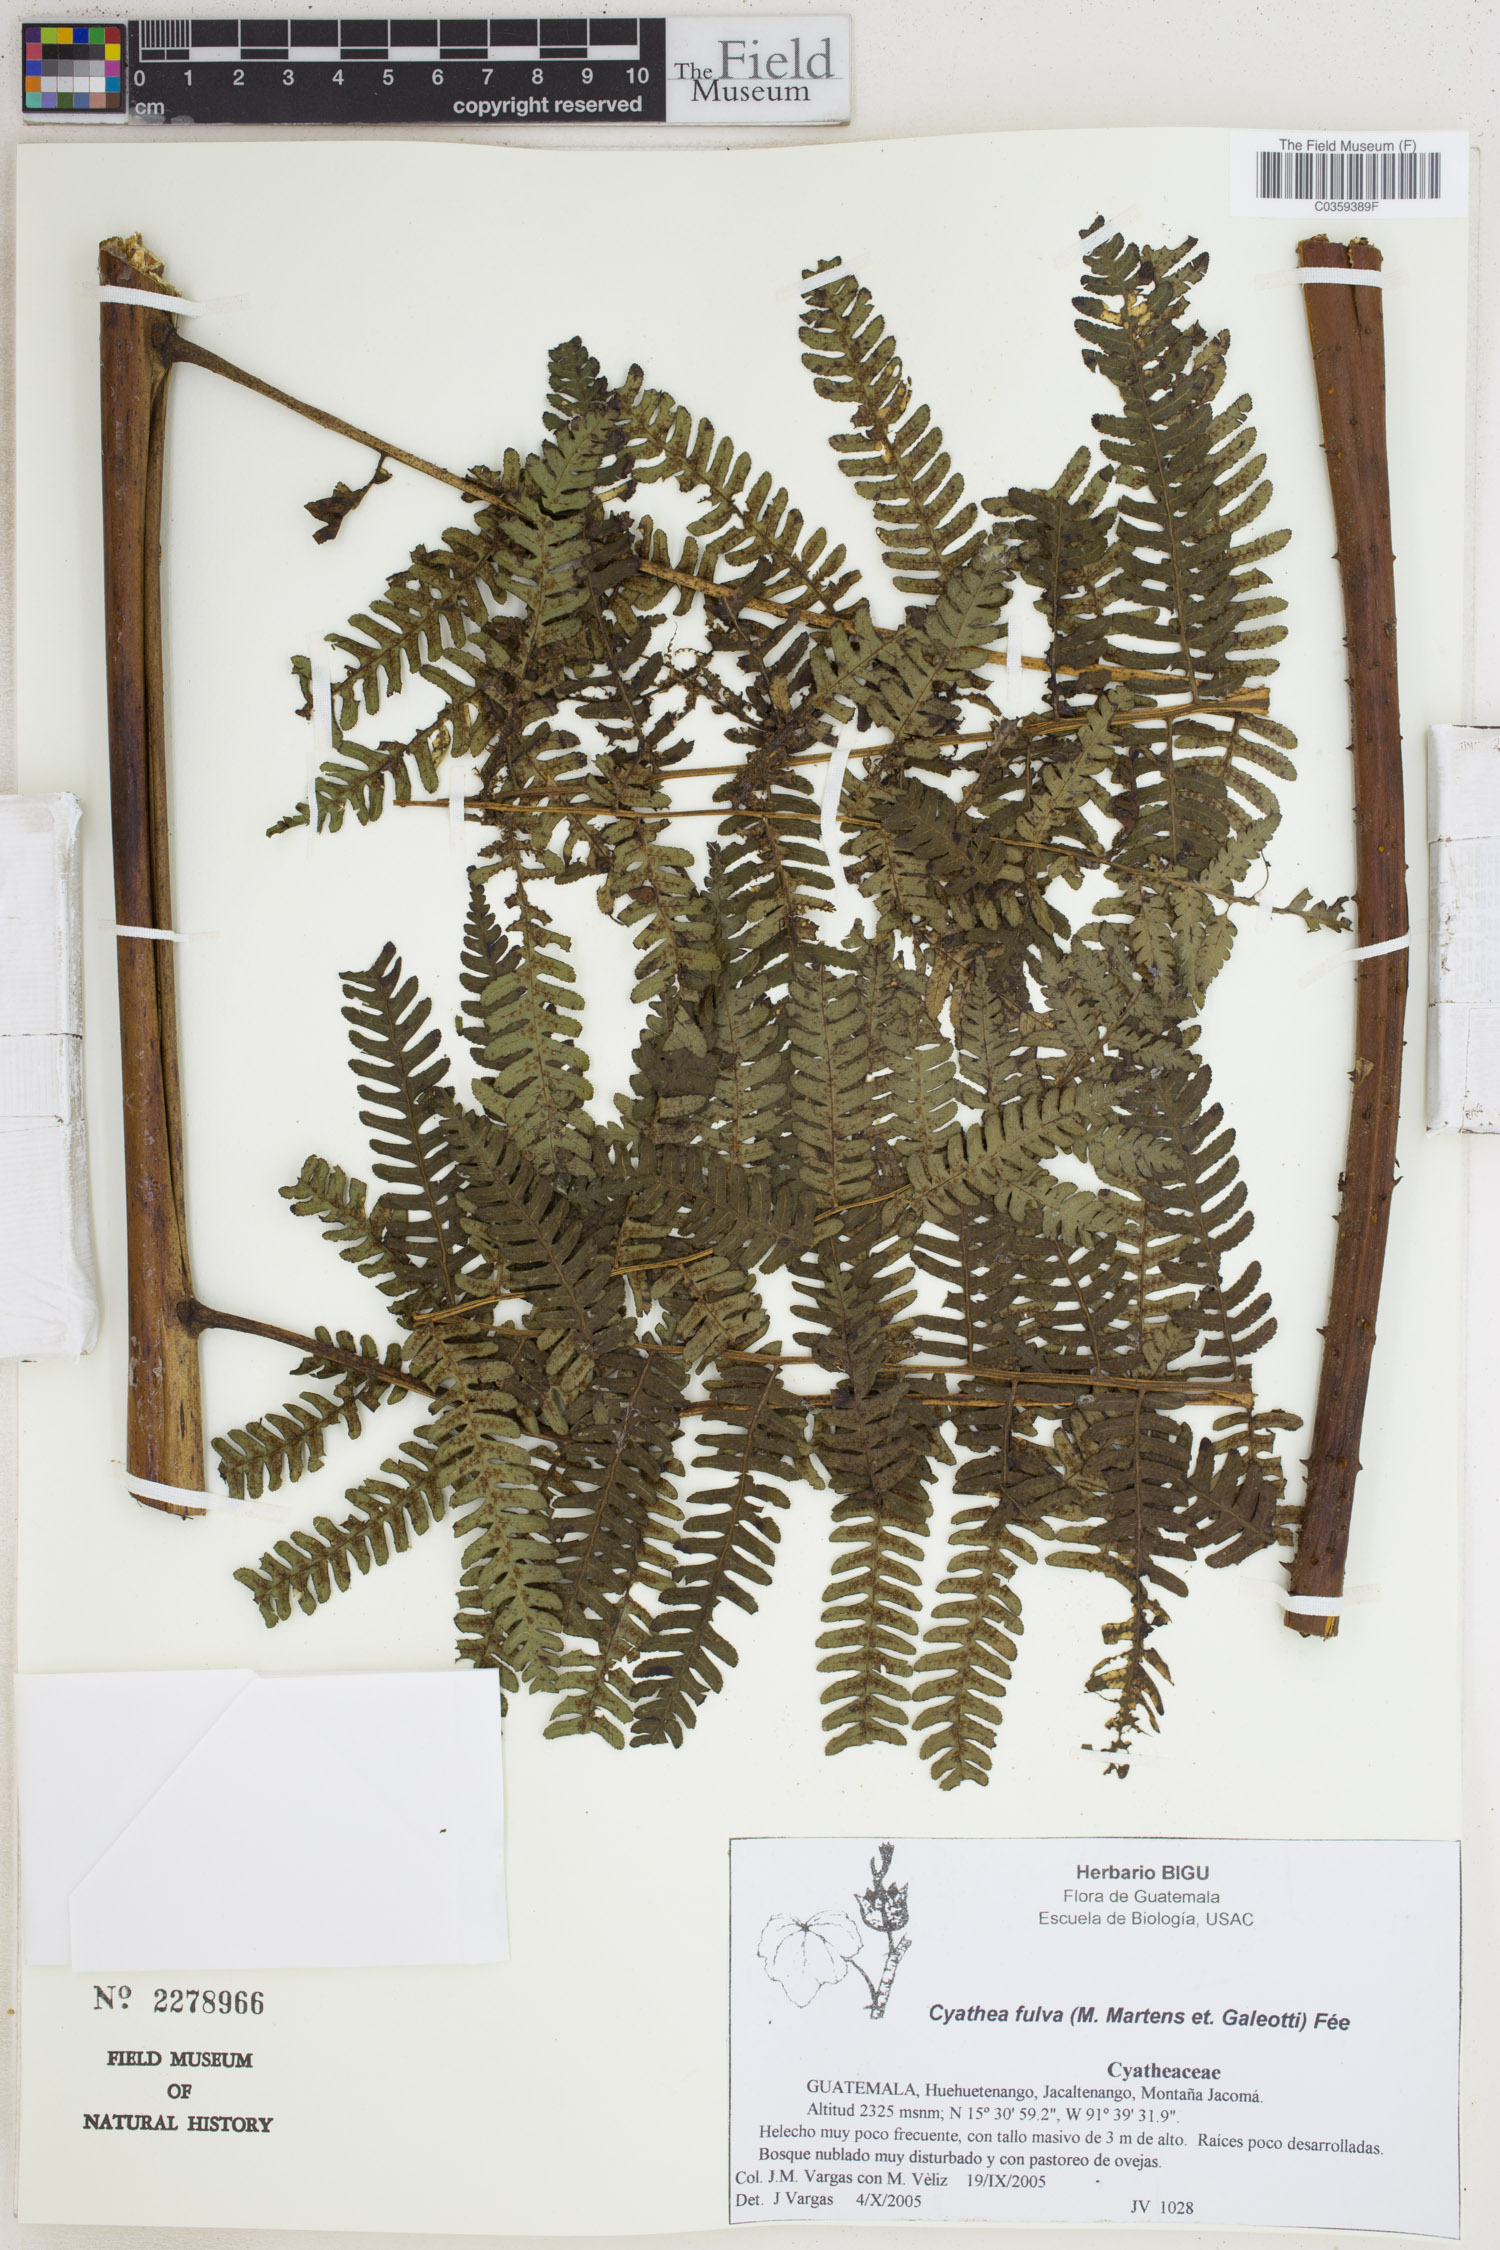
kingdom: Plantae
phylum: Tracheophyta
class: Polypodiopsida
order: Cyatheales
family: Cyatheaceae
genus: Cyathea
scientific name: Cyathea fulva
